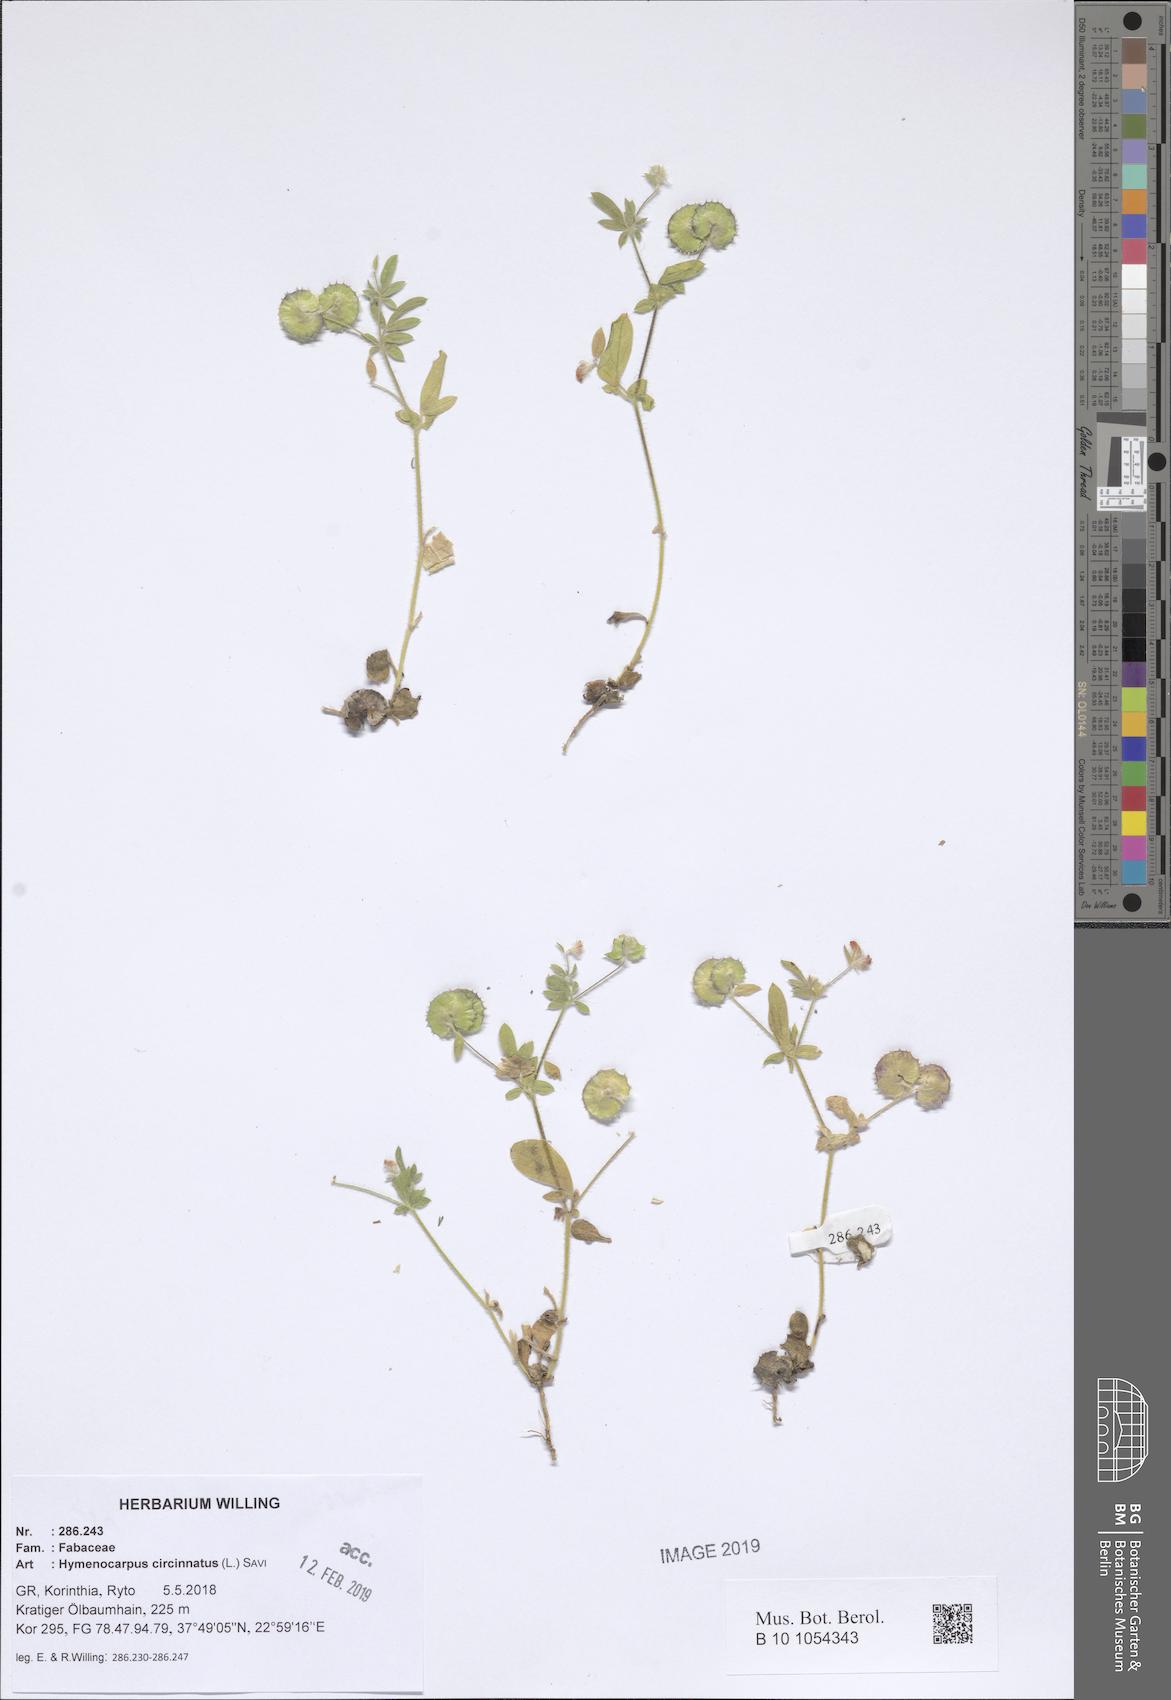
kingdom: Plantae
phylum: Tracheophyta
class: Magnoliopsida
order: Fabales
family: Fabaceae
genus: Anthyllis
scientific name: Anthyllis circinnata
